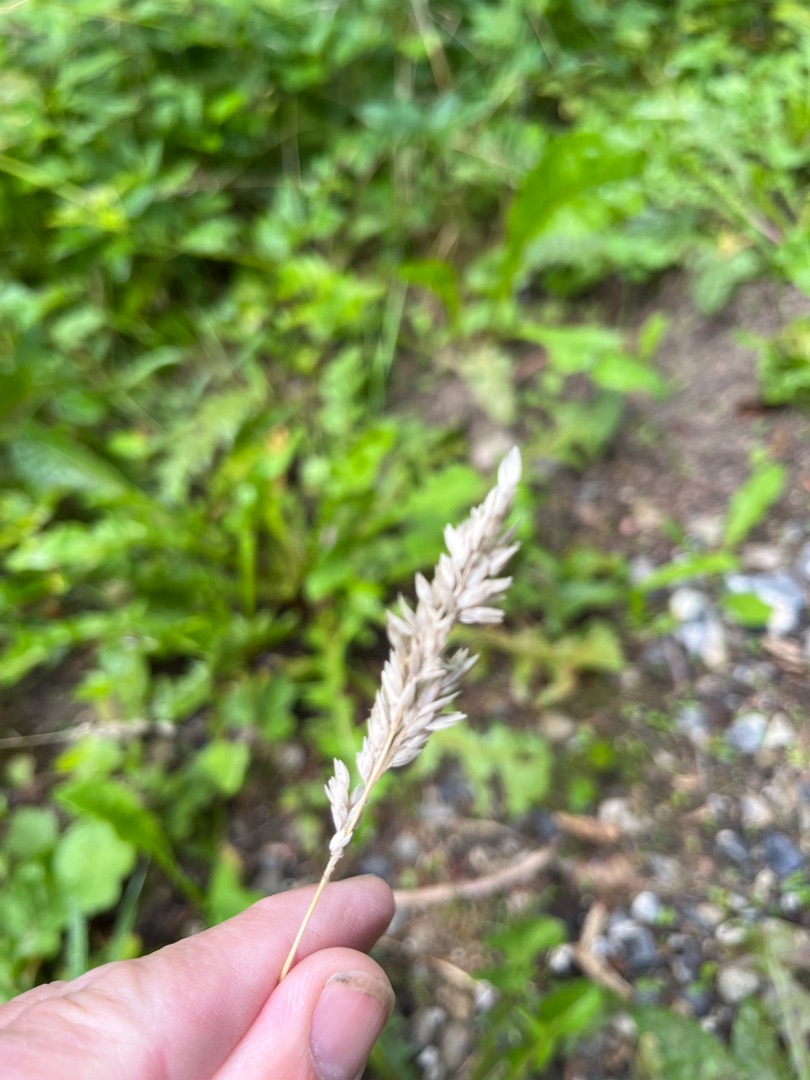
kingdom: Plantae
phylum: Tracheophyta
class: Liliopsida
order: Poales
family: Poaceae
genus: Holcus
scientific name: Holcus lanatus
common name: Fløjlsgræs
